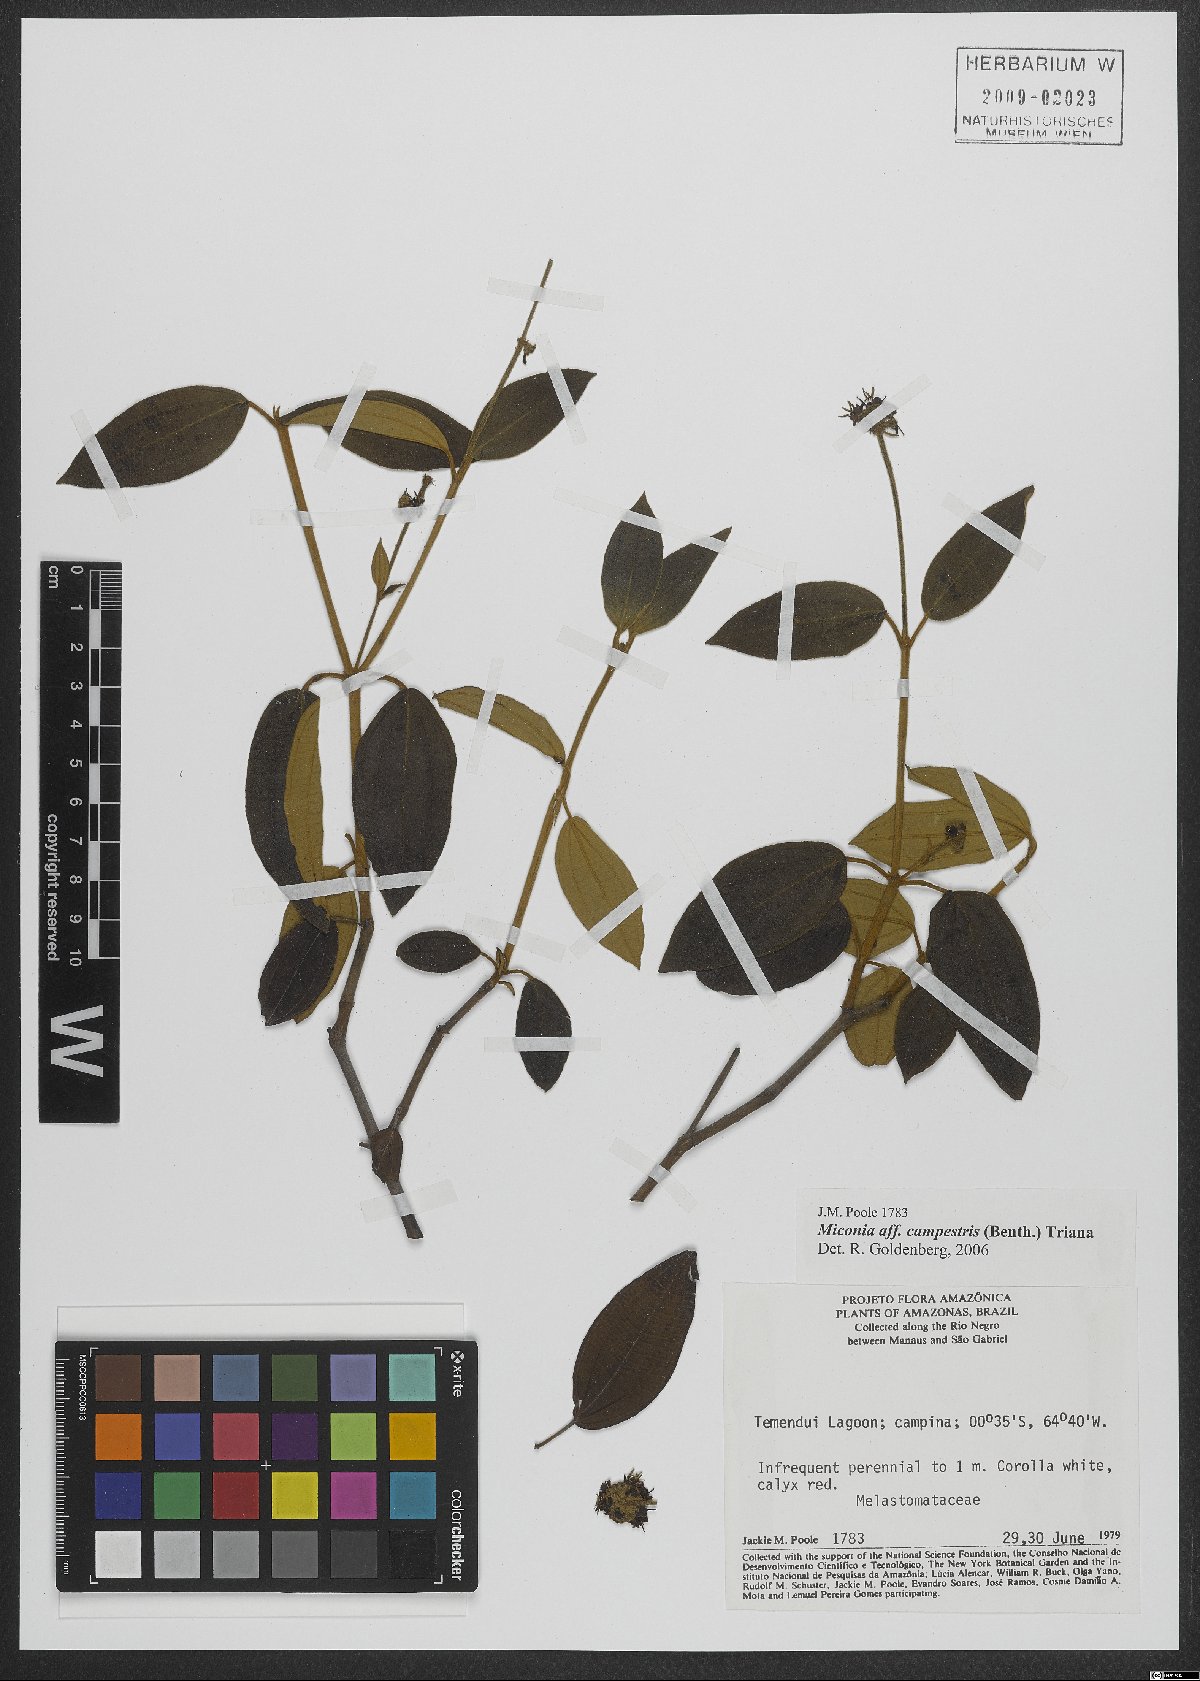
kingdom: Plantae
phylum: Tracheophyta
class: Magnoliopsida
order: Myrtales
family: Melastomataceae
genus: Miconia
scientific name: Miconia campestris
